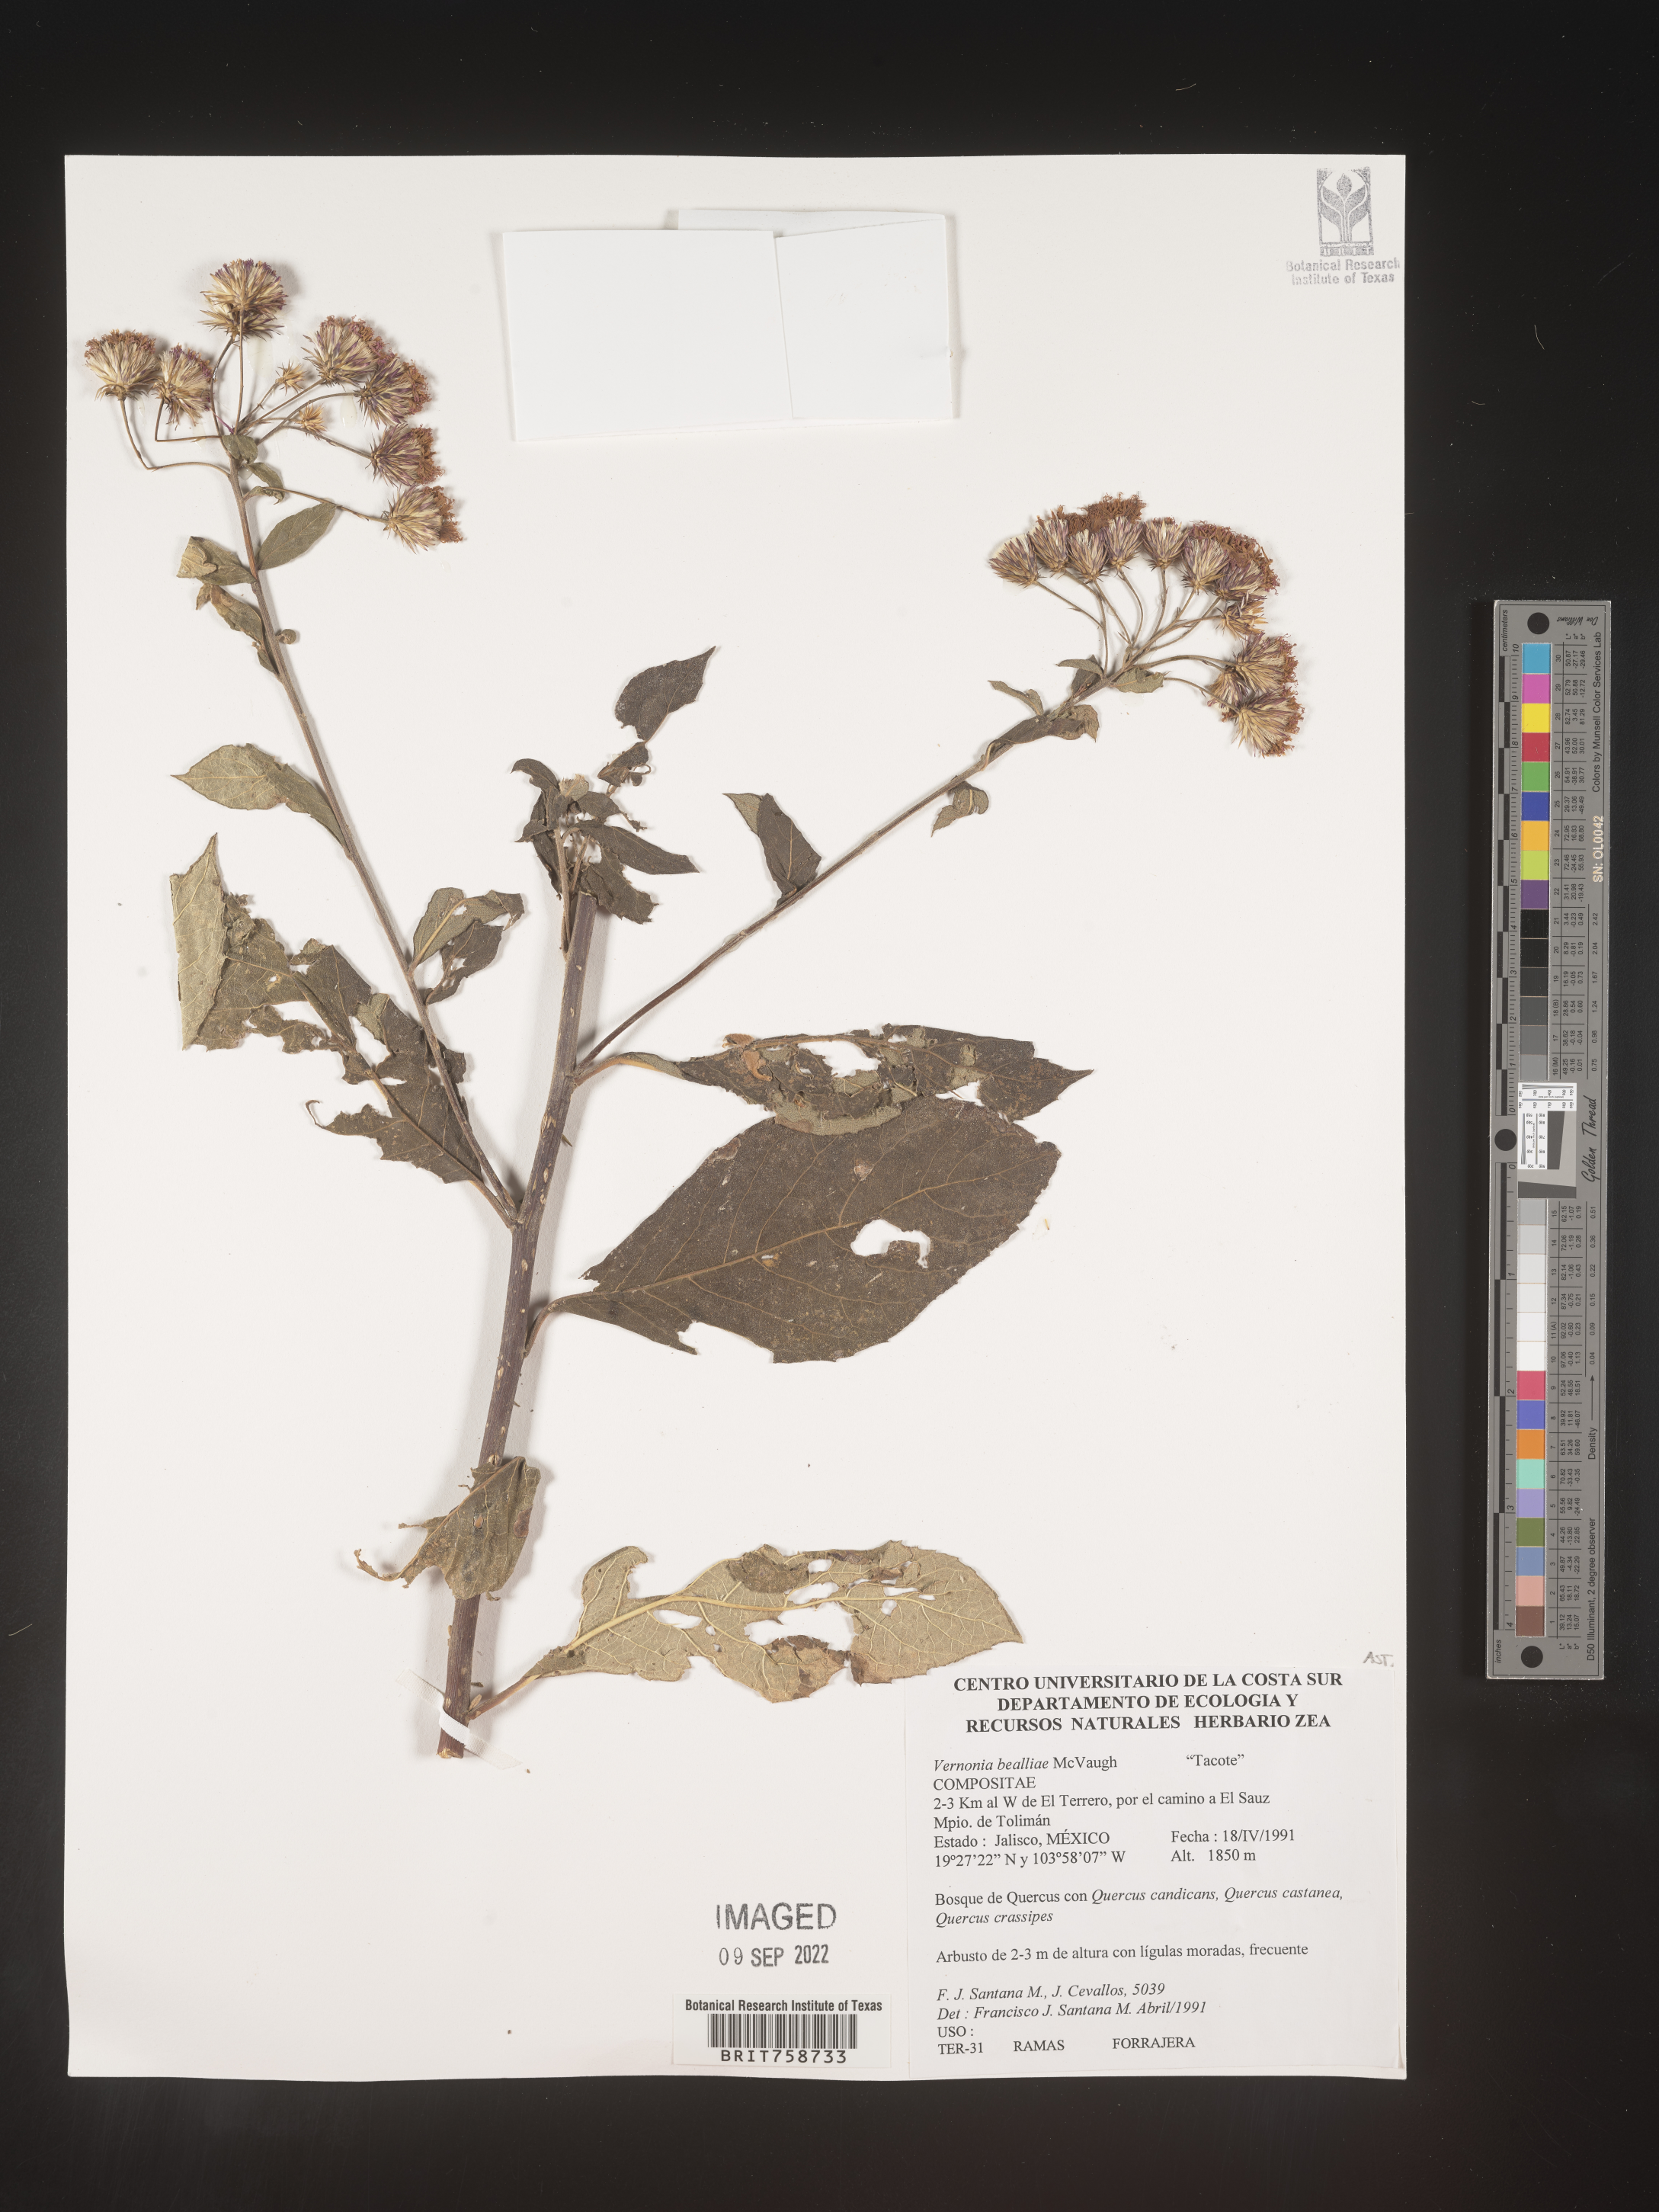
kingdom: Plantae
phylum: Tracheophyta
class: Magnoliopsida
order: Asterales
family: Asteraceae
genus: Vernonia
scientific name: Vernonia
